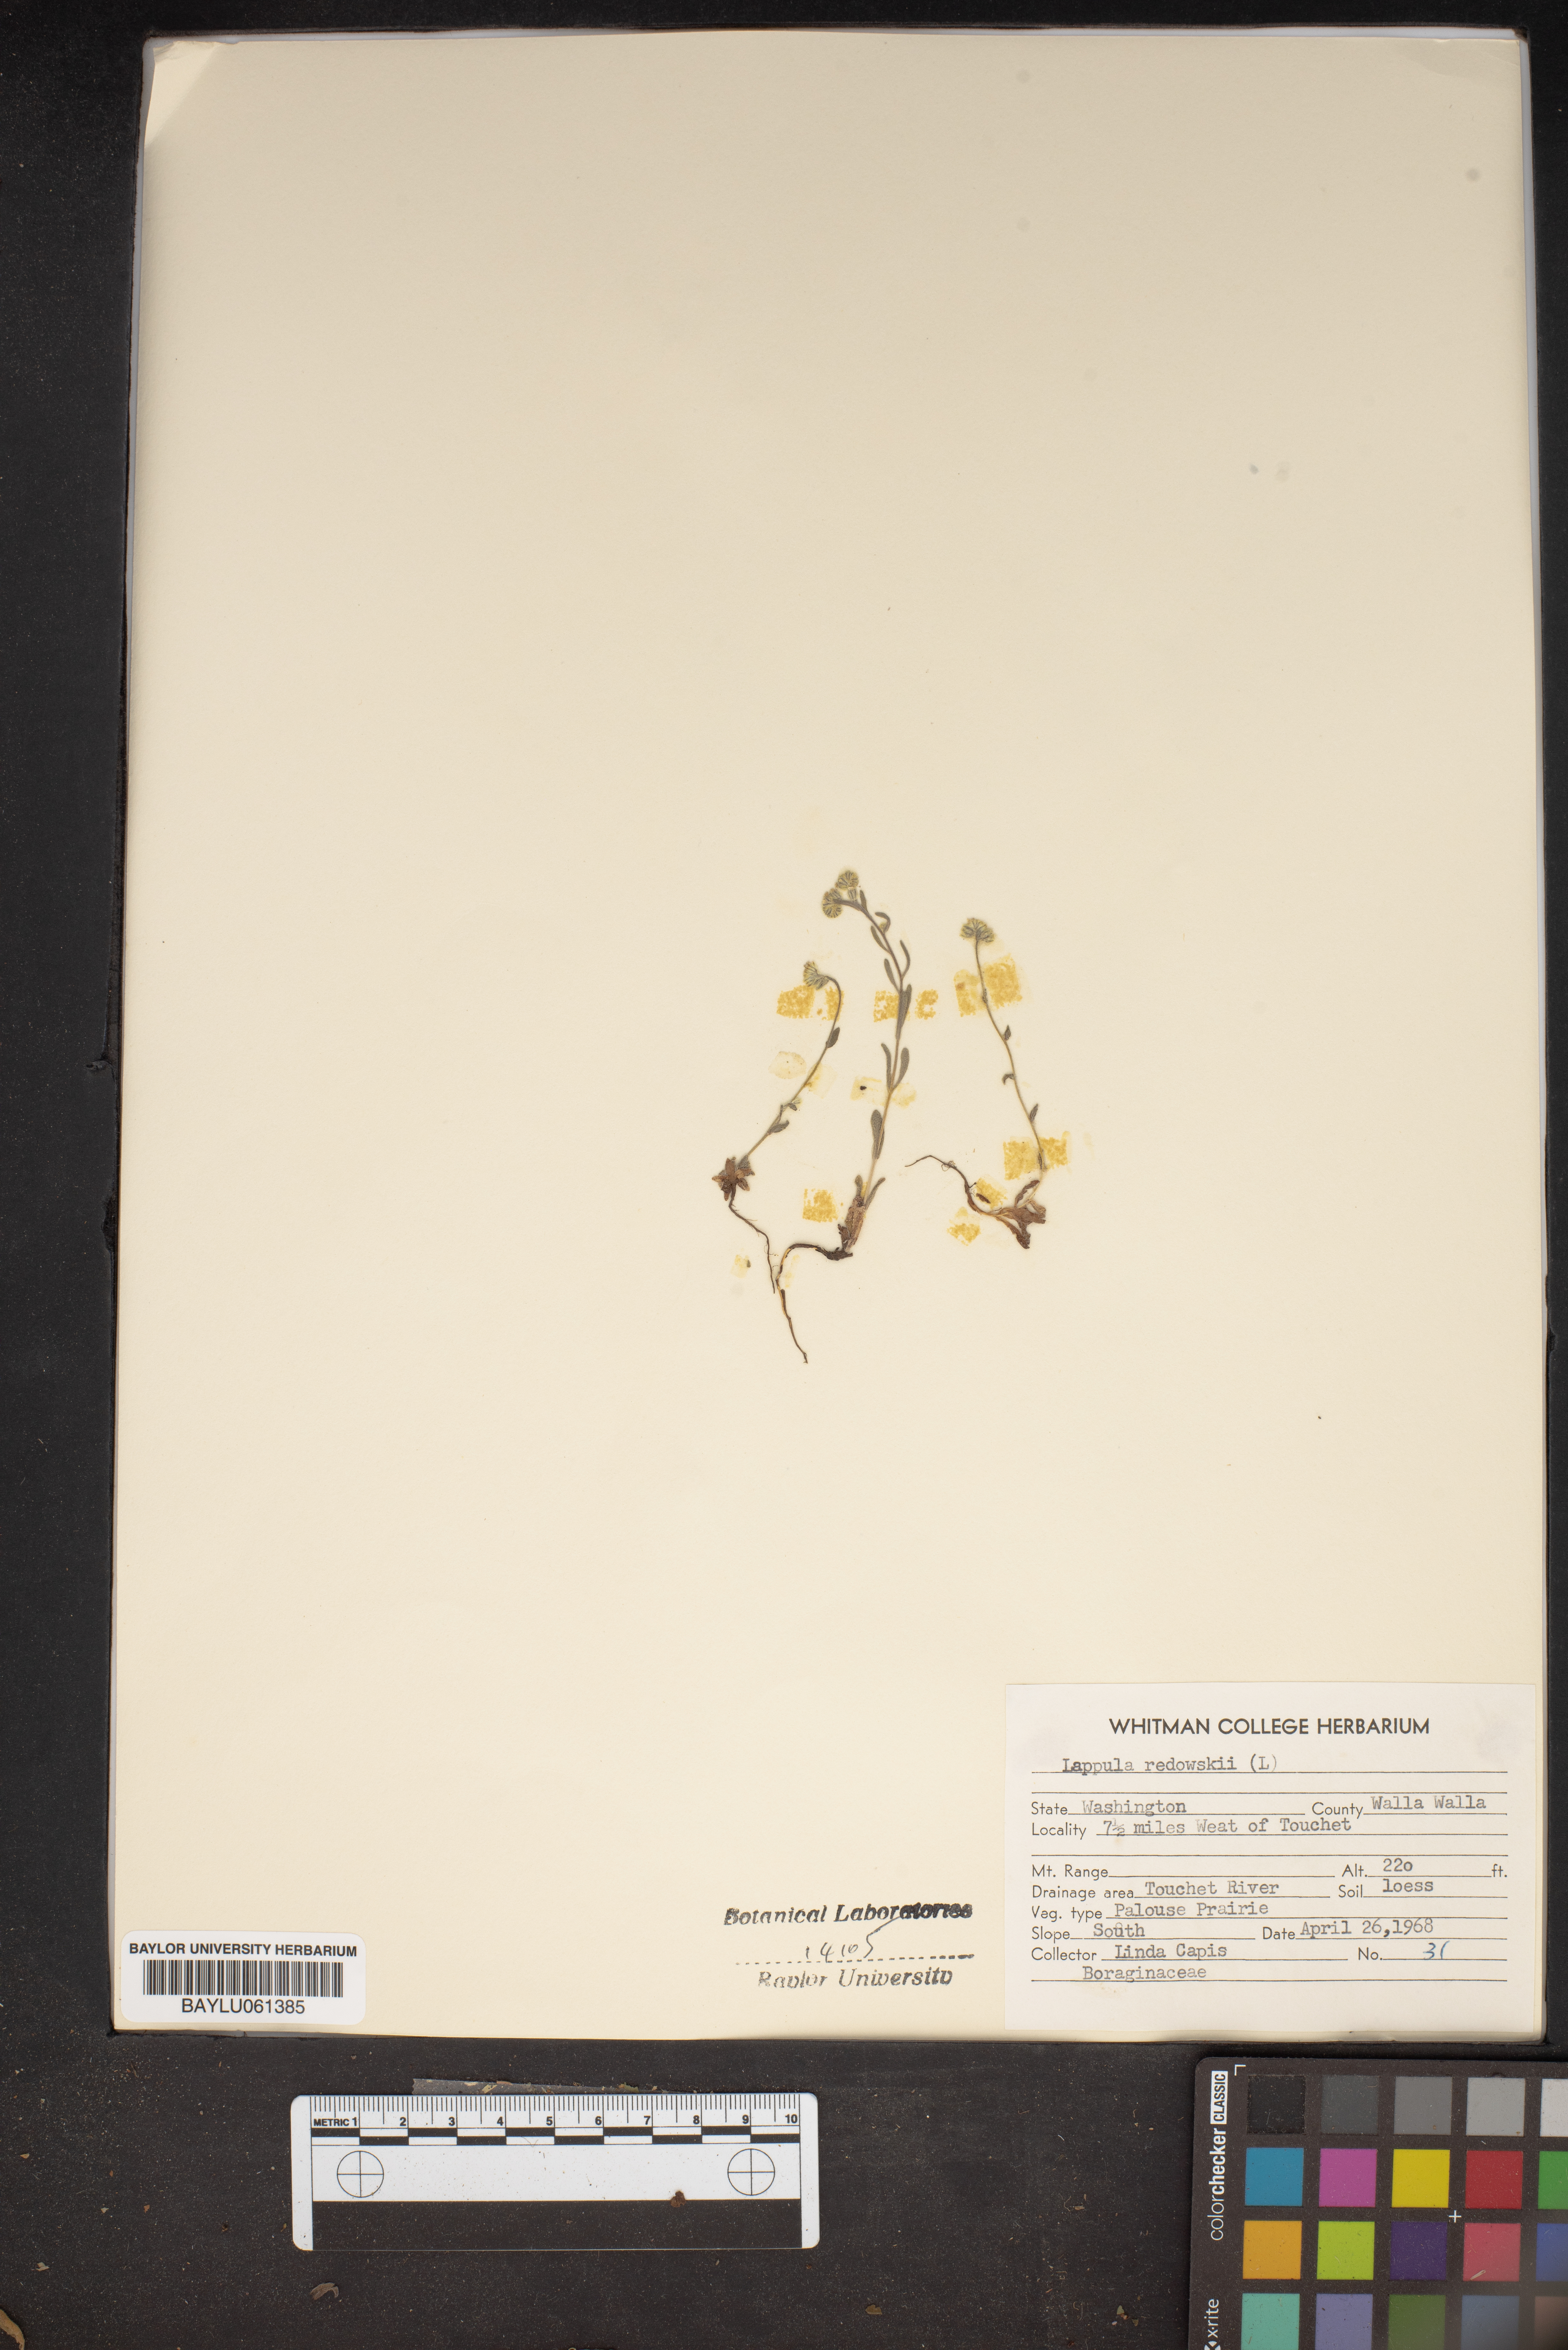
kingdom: Plantae
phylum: Tracheophyta
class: Magnoliopsida
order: Boraginales
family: Boraginaceae
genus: Lappula
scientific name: Lappula redowskii
